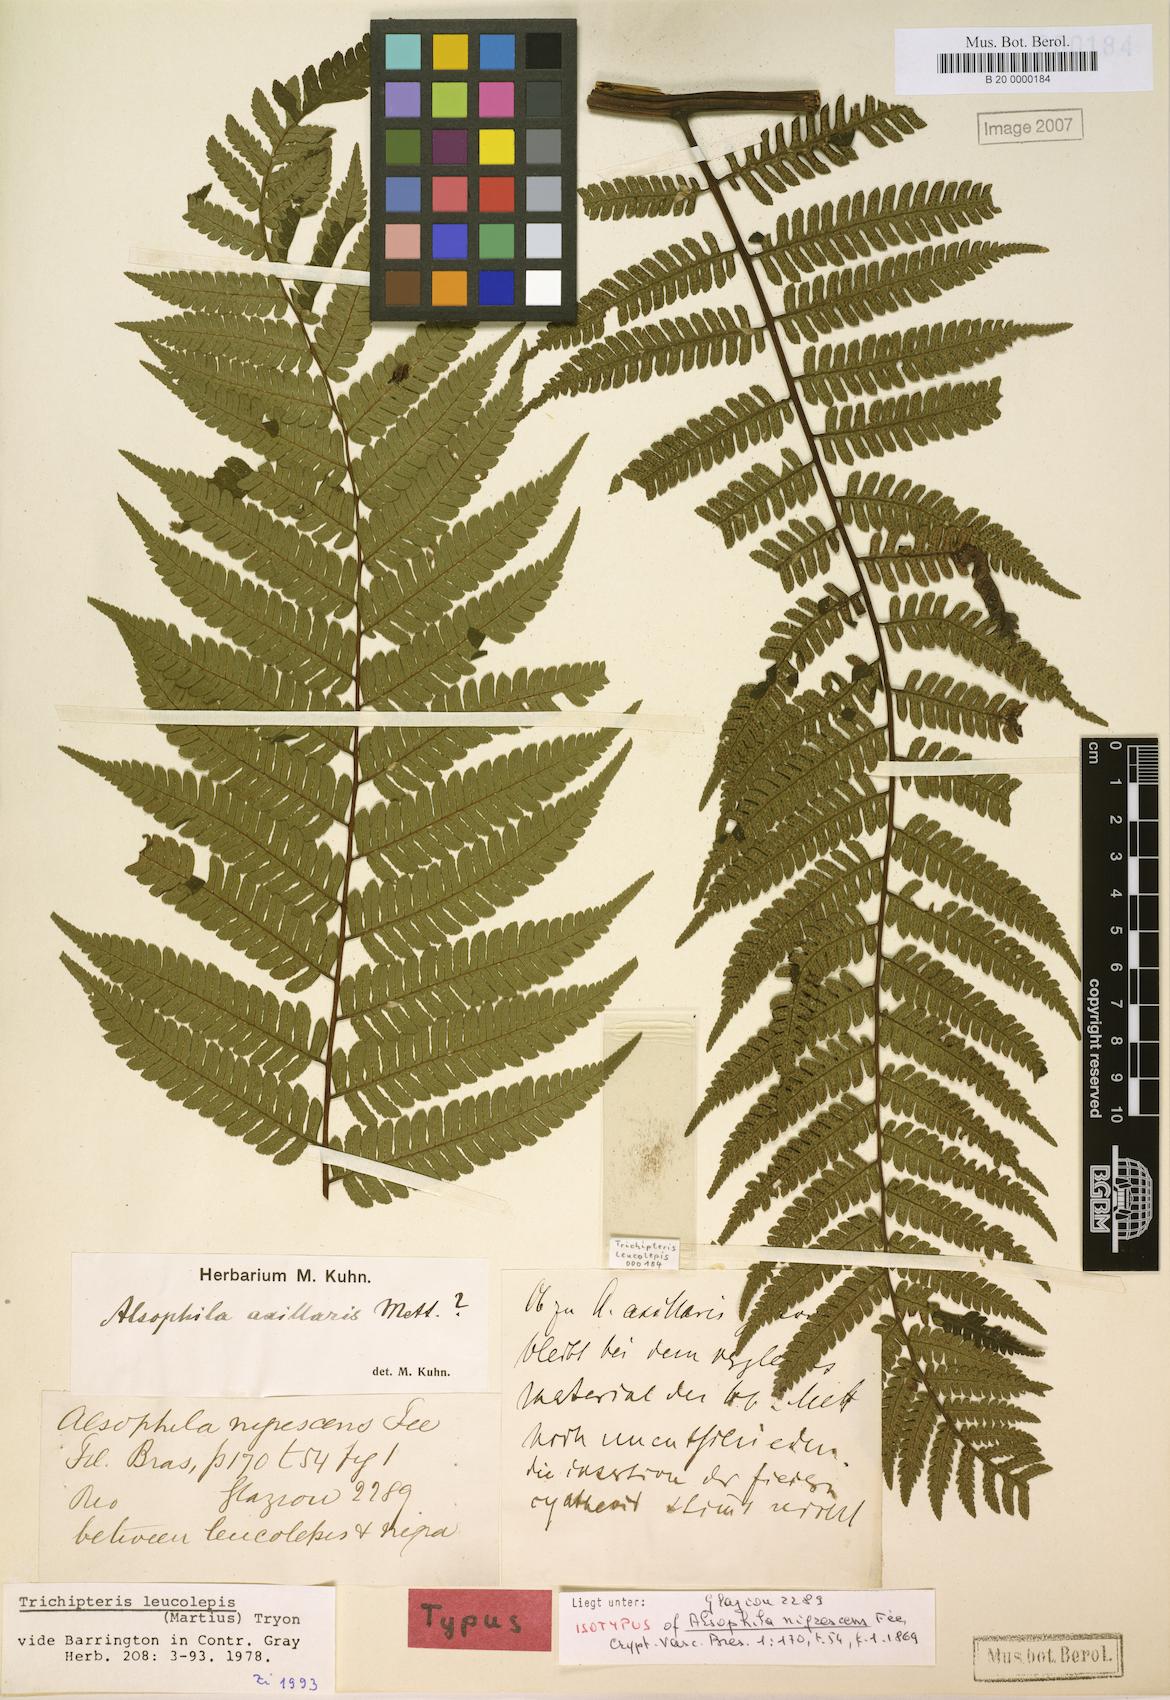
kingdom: Plantae
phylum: Tracheophyta
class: Polypodiopsida
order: Cyatheales
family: Cyatheaceae
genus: Cyathea
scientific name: Cyathea axillaris
